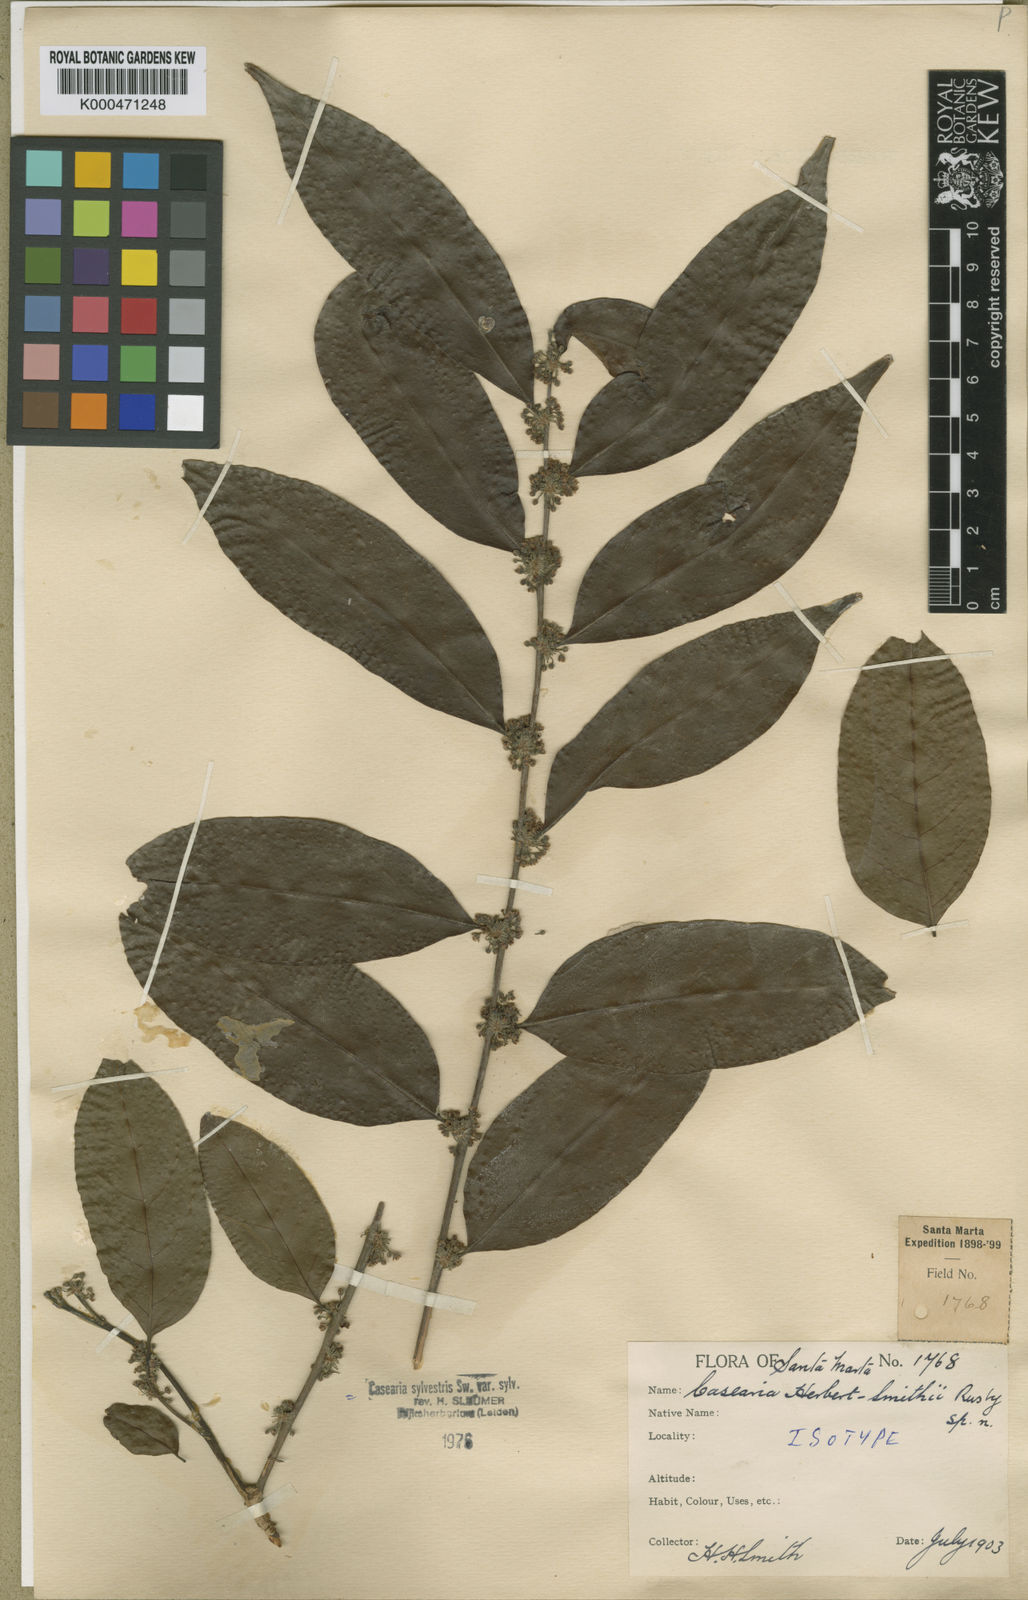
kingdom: Plantae
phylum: Tracheophyta
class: Magnoliopsida
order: Malpighiales
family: Salicaceae
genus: Casearia
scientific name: Casearia sylvestris
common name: Wild sage
